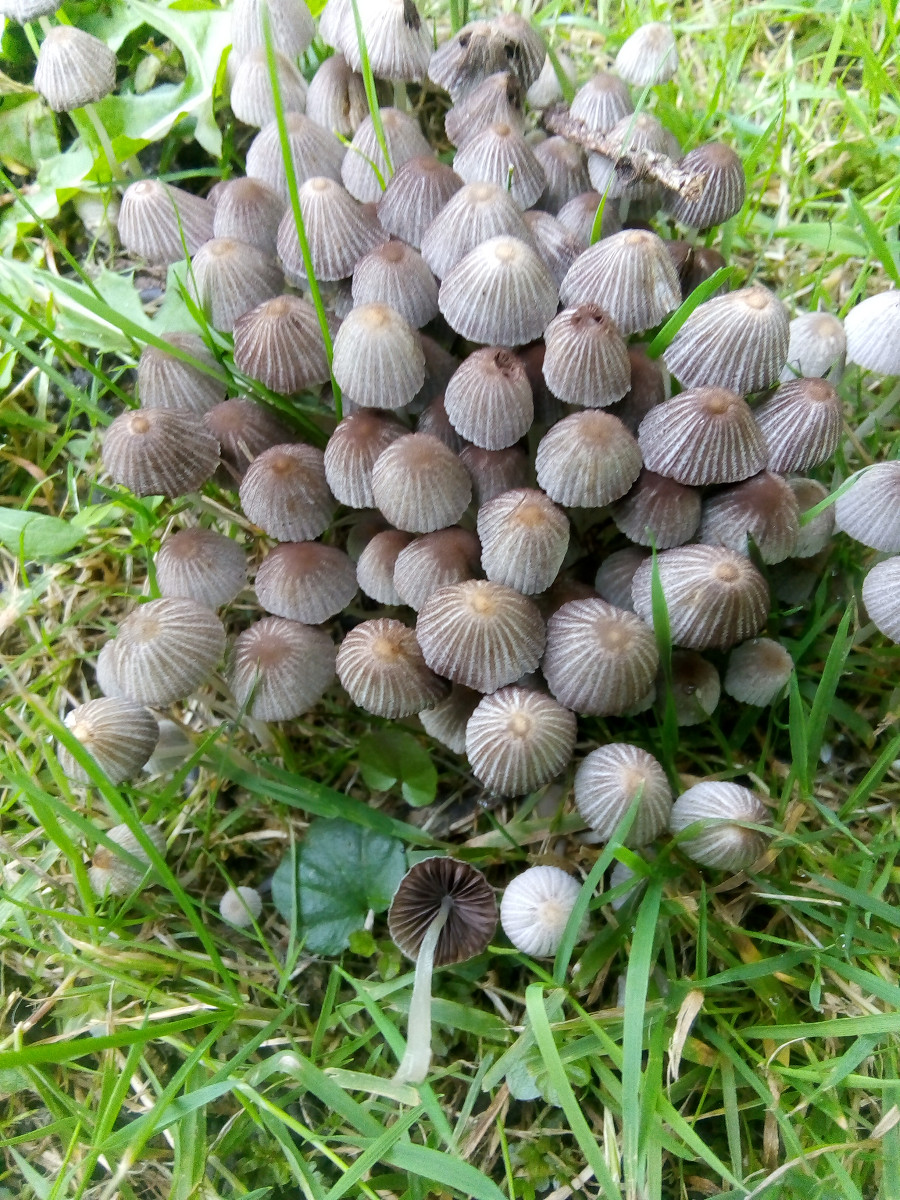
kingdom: Fungi
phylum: Basidiomycota
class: Agaricomycetes
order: Agaricales
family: Psathyrellaceae
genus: Coprinellus
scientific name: Coprinellus disseminatus
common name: bredsået blækhat
